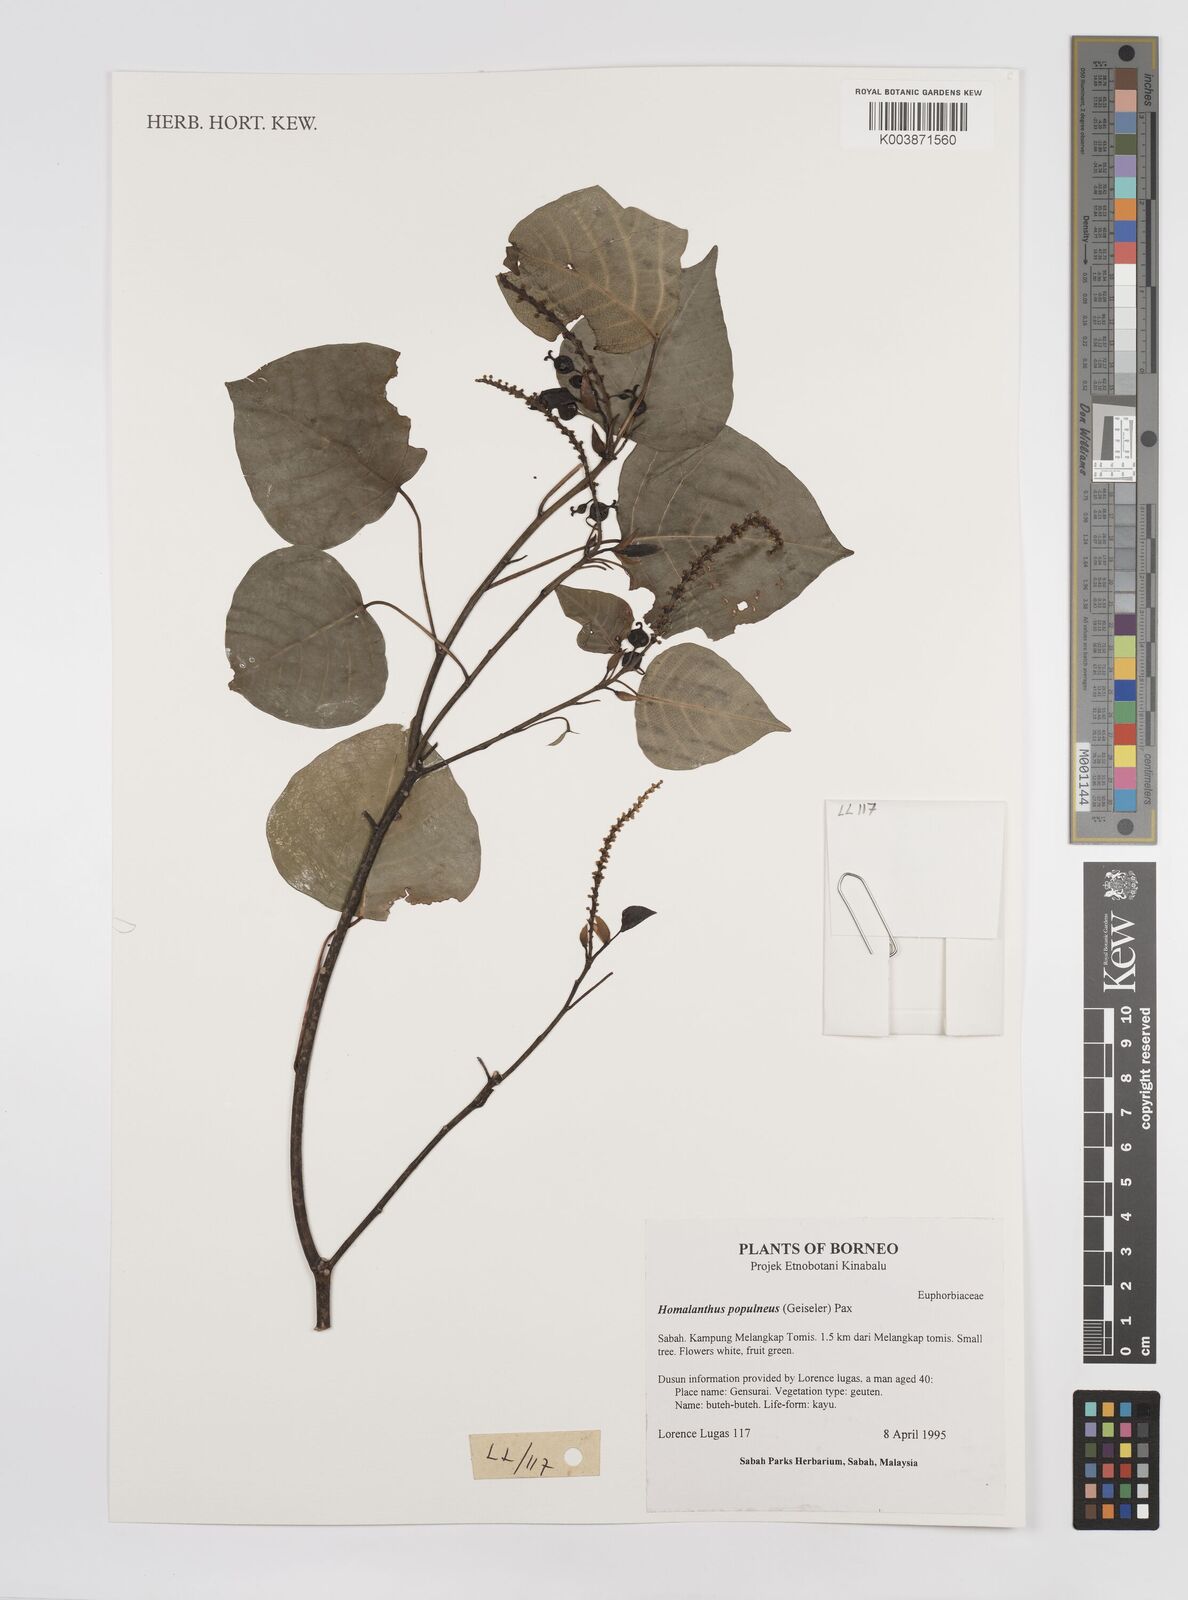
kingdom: Plantae
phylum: Tracheophyta
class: Magnoliopsida
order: Malpighiales
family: Euphorbiaceae
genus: Homalanthus
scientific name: Homalanthus populneus
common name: Spurge
